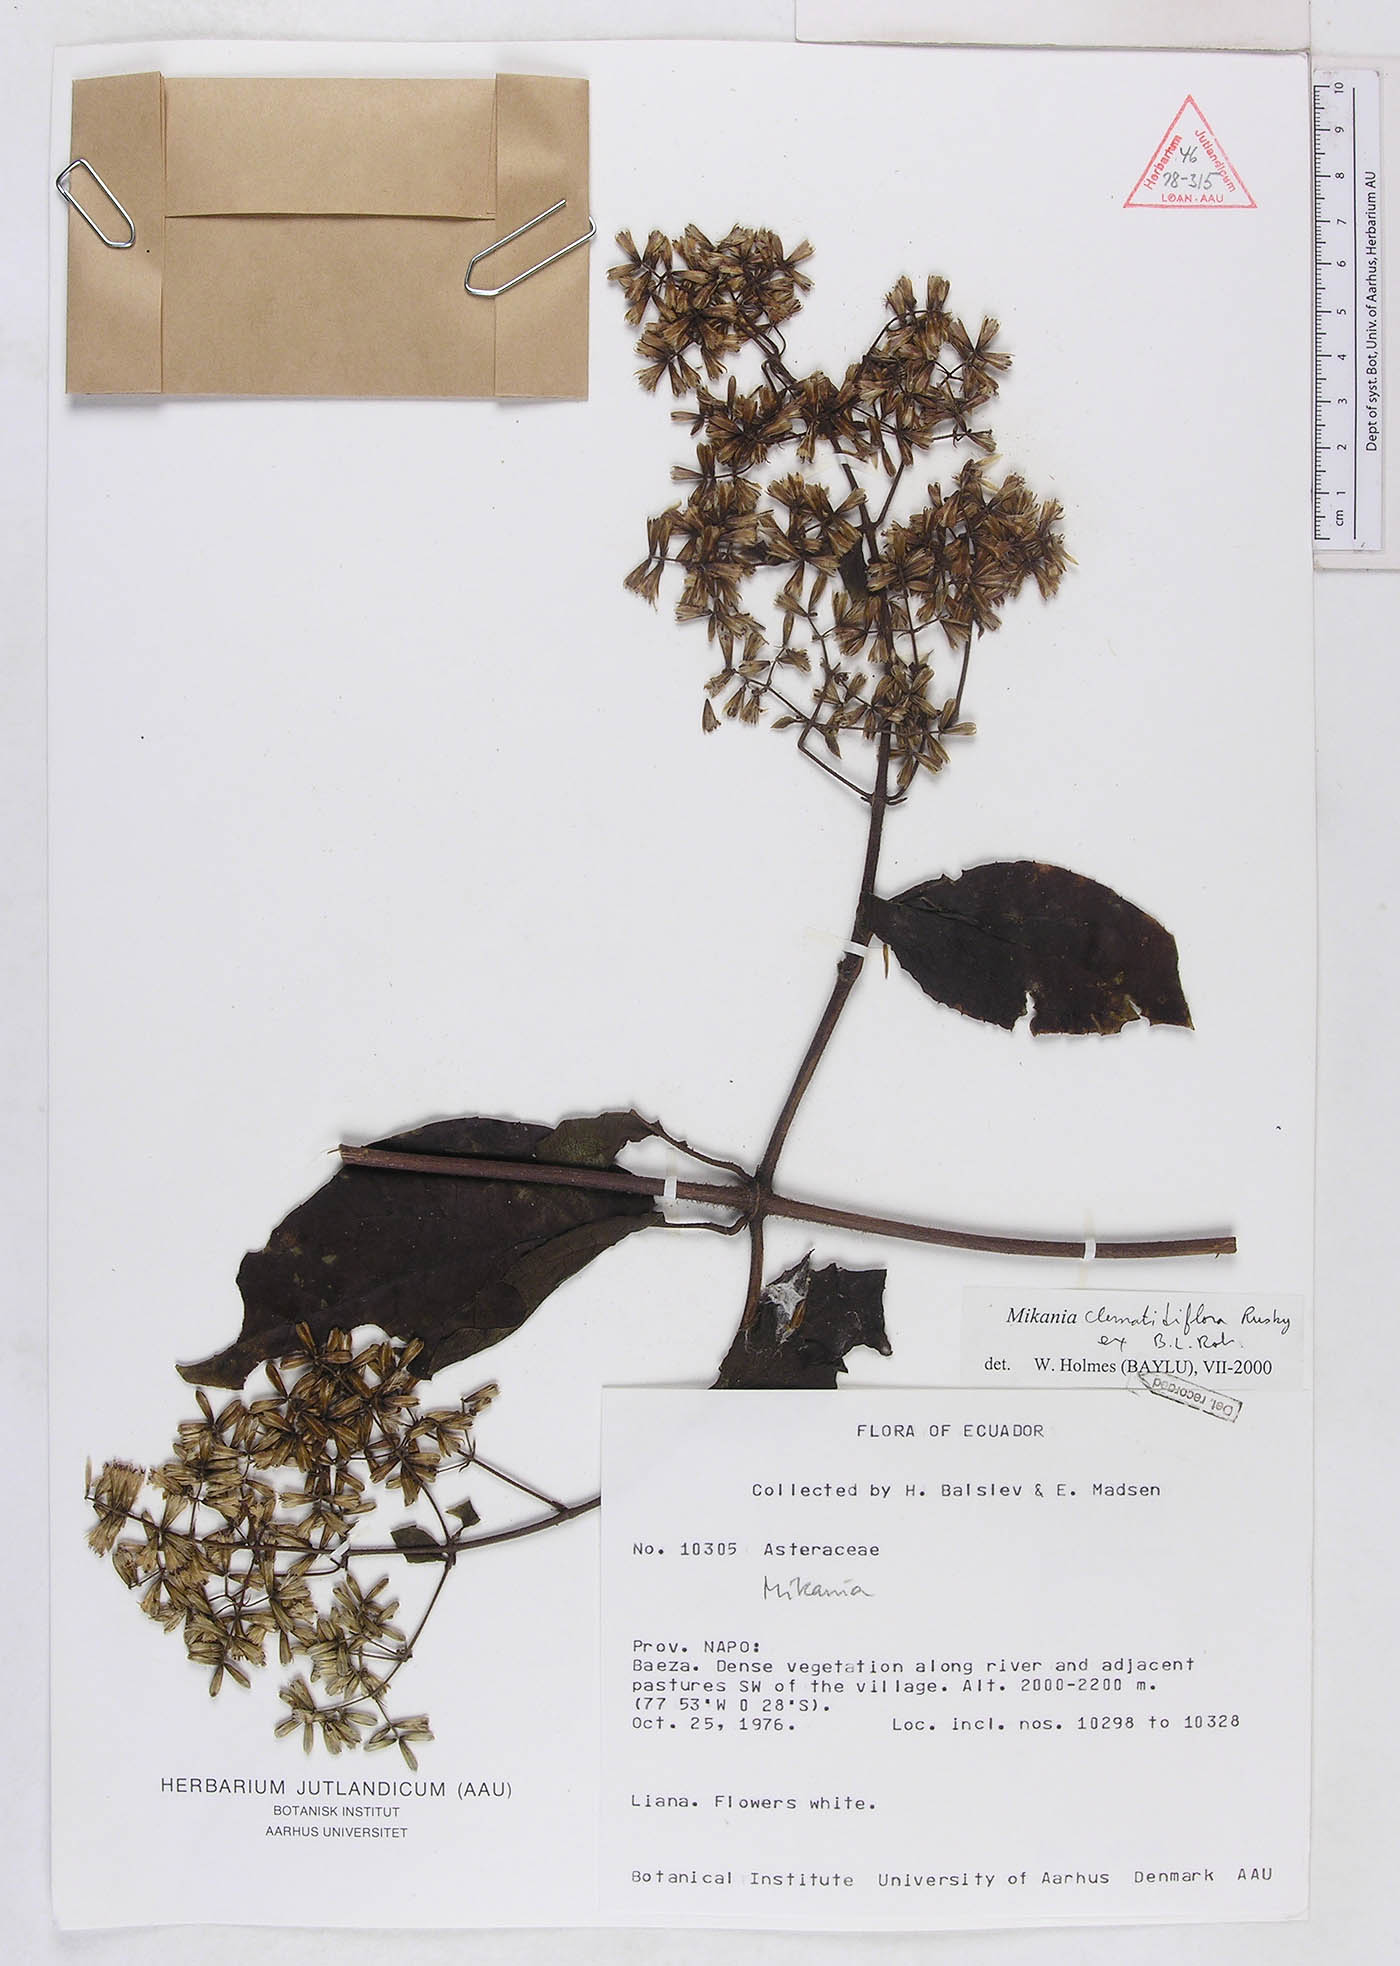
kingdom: Plantae
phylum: Tracheophyta
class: Magnoliopsida
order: Asterales
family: Asteraceae
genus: Mikania
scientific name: Mikania clematidiflora
